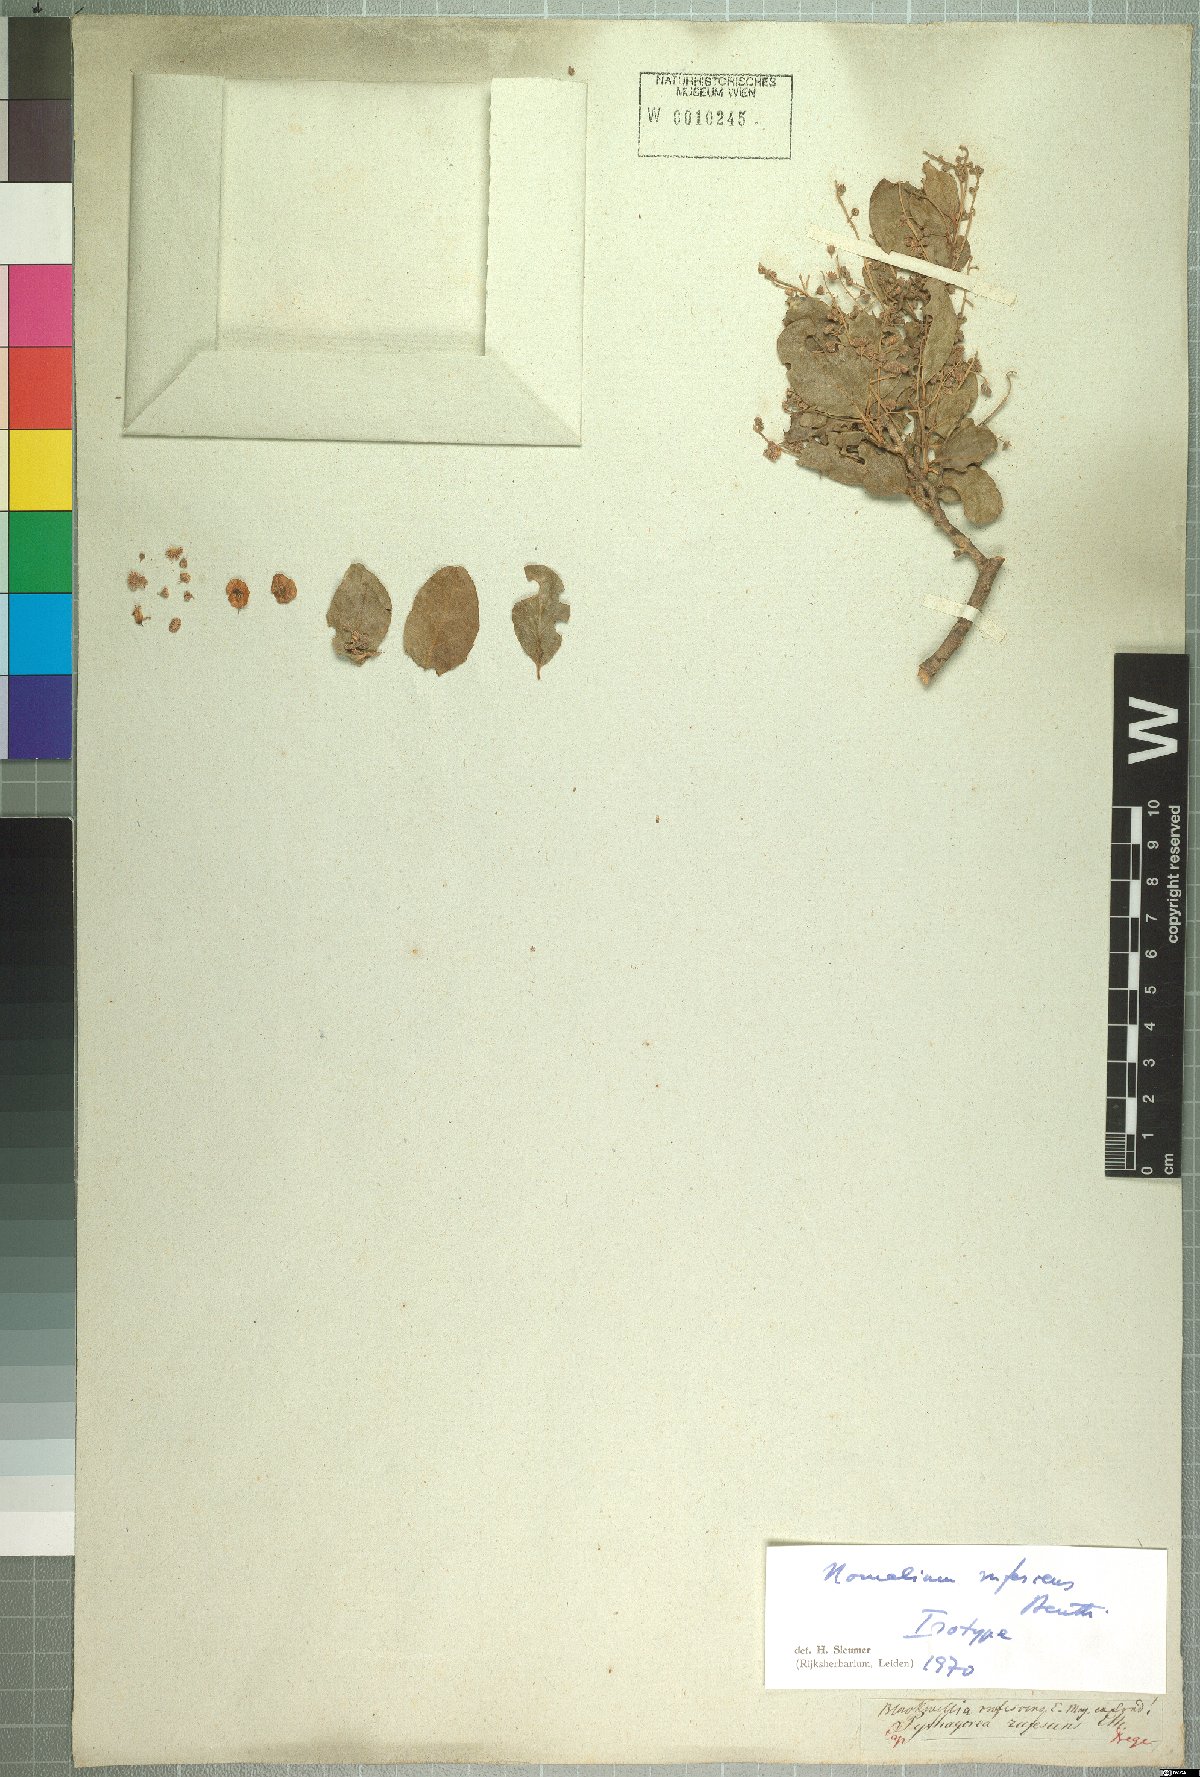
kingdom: Plantae
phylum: Tracheophyta
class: Magnoliopsida
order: Malpighiales
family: Salicaceae
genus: Homalium
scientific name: Homalium rufescens
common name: Small-leaved brown-ironwood
